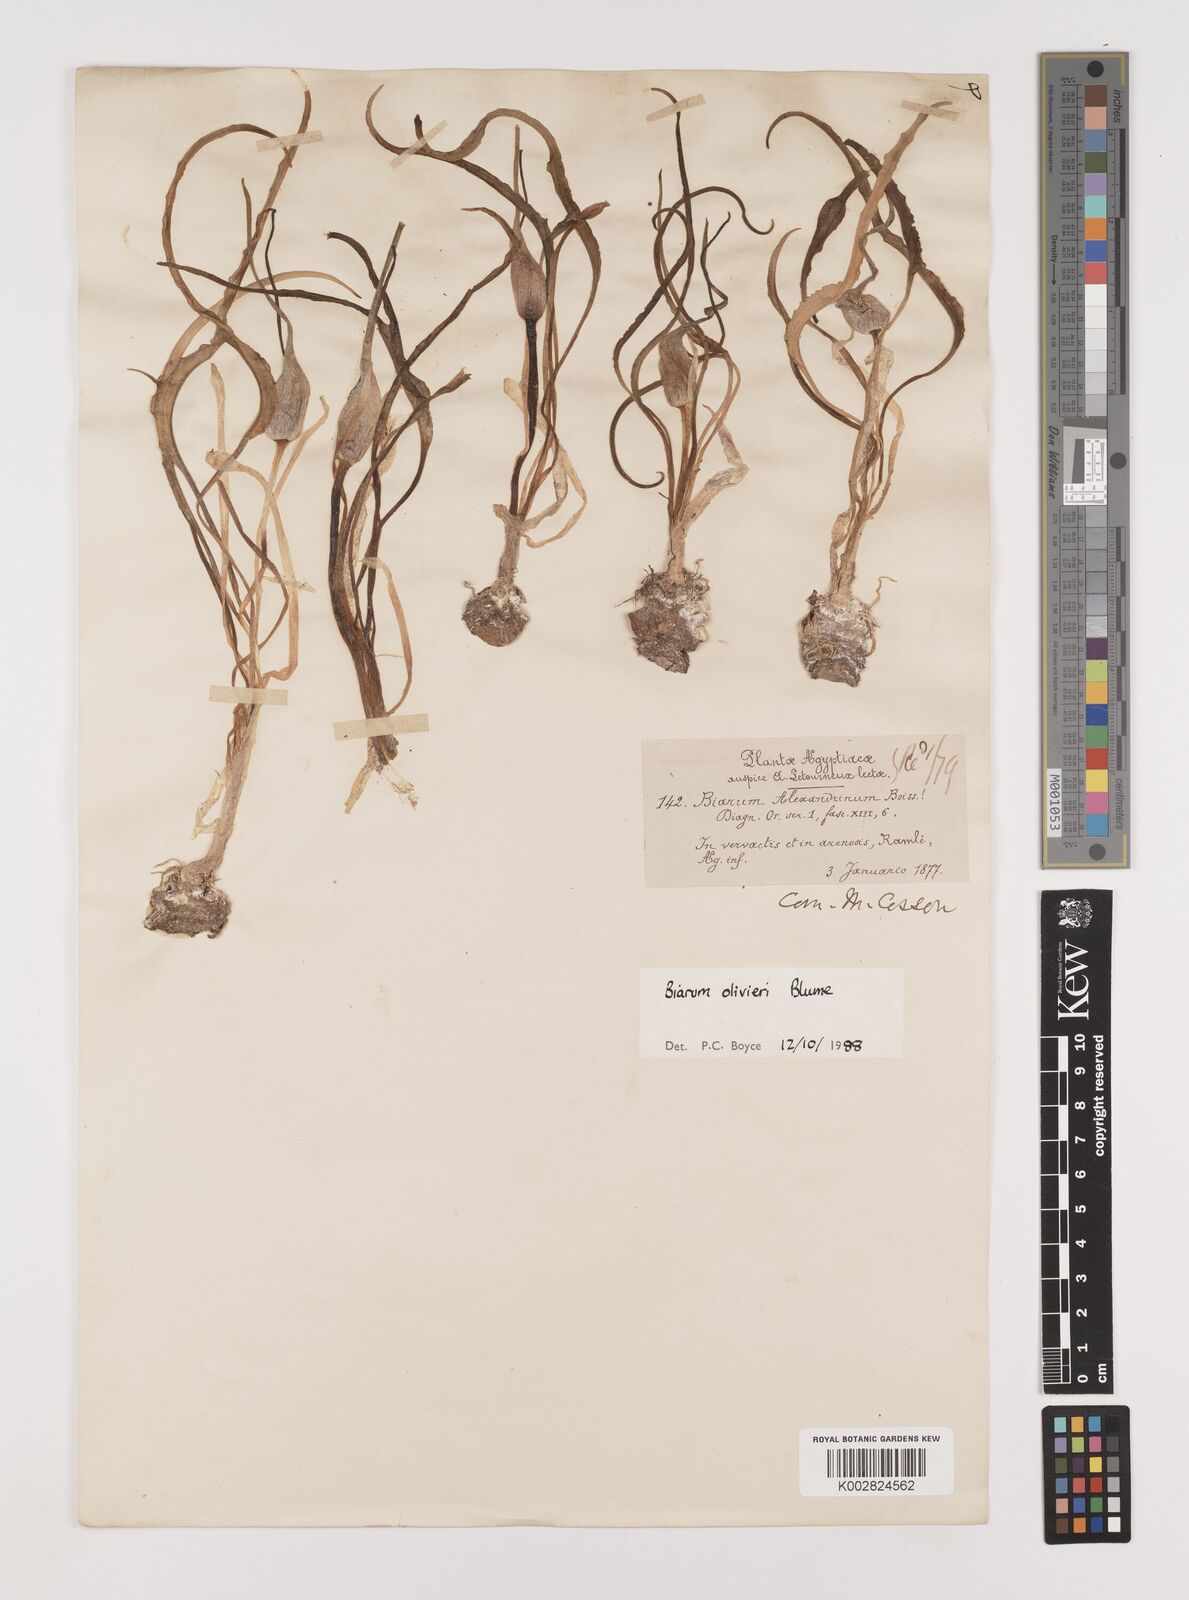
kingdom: Plantae
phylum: Tracheophyta
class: Liliopsida
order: Alismatales
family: Araceae
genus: Biarum
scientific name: Biarum olivieri
